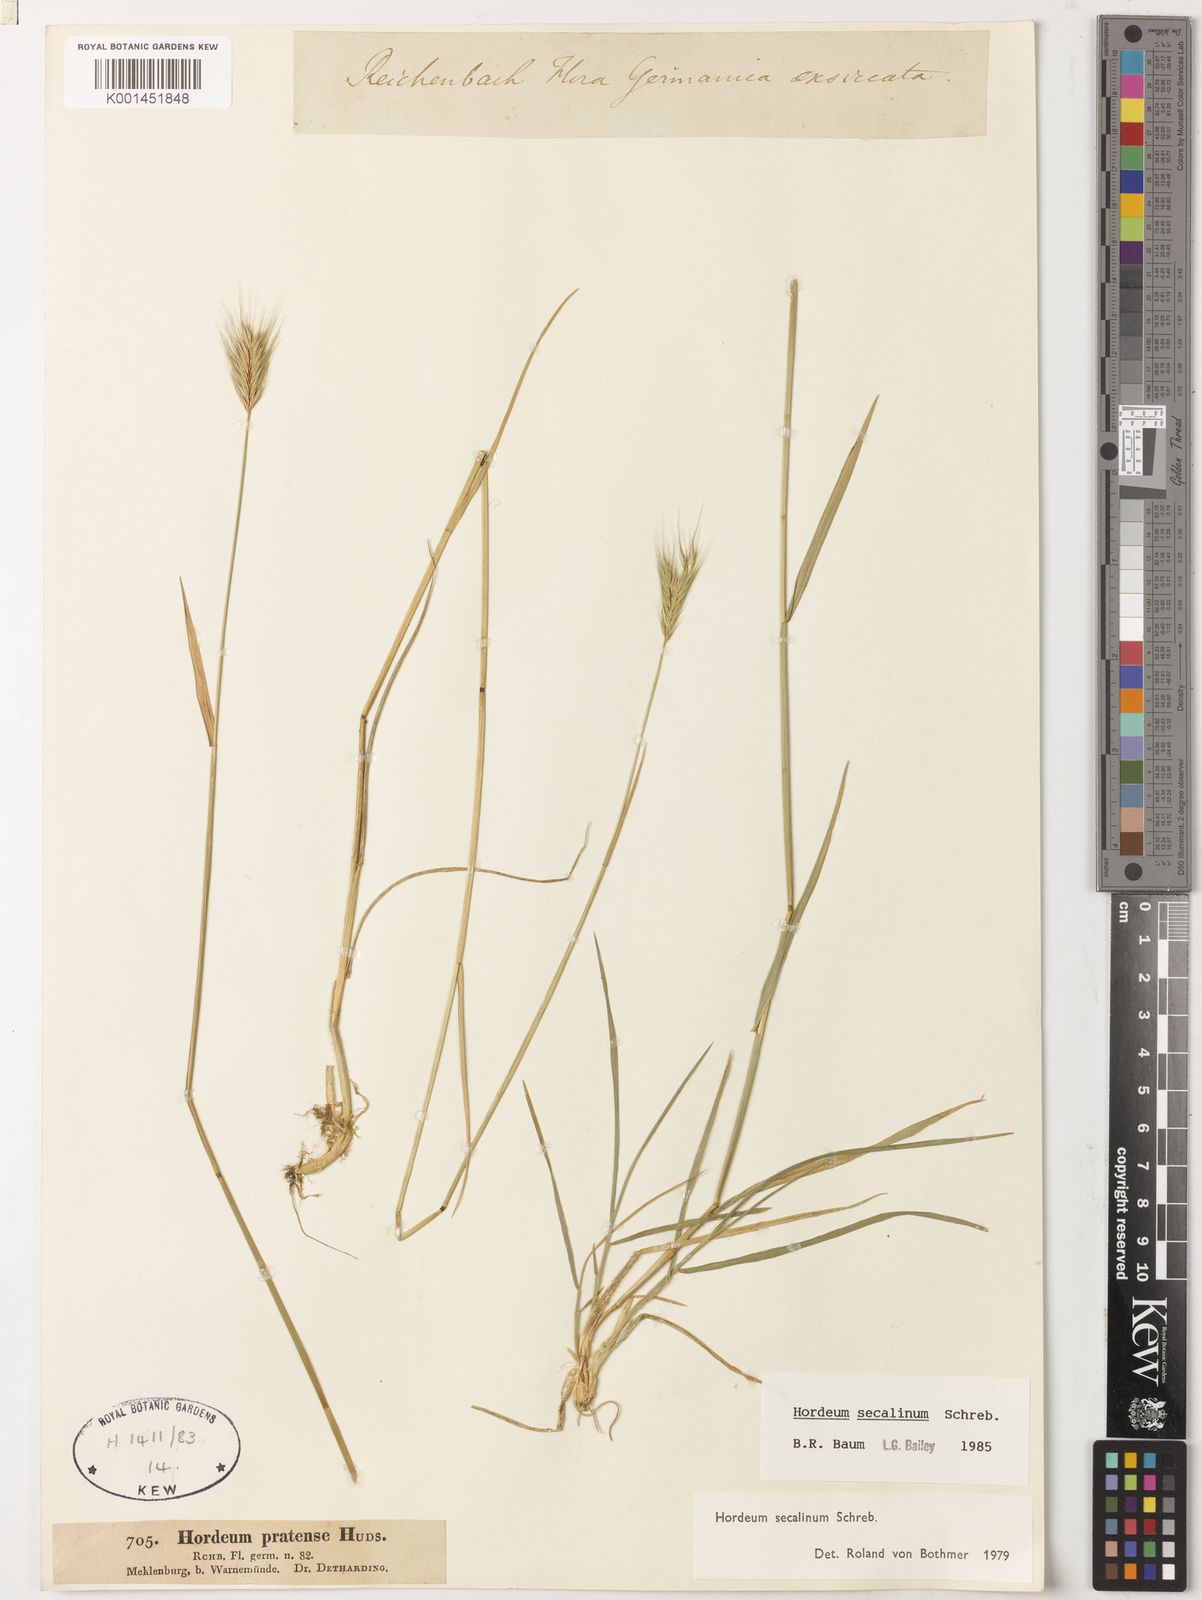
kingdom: Plantae
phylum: Tracheophyta
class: Liliopsida
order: Poales
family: Poaceae
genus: Hordeum
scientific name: Hordeum secalinum
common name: Meadow barley
